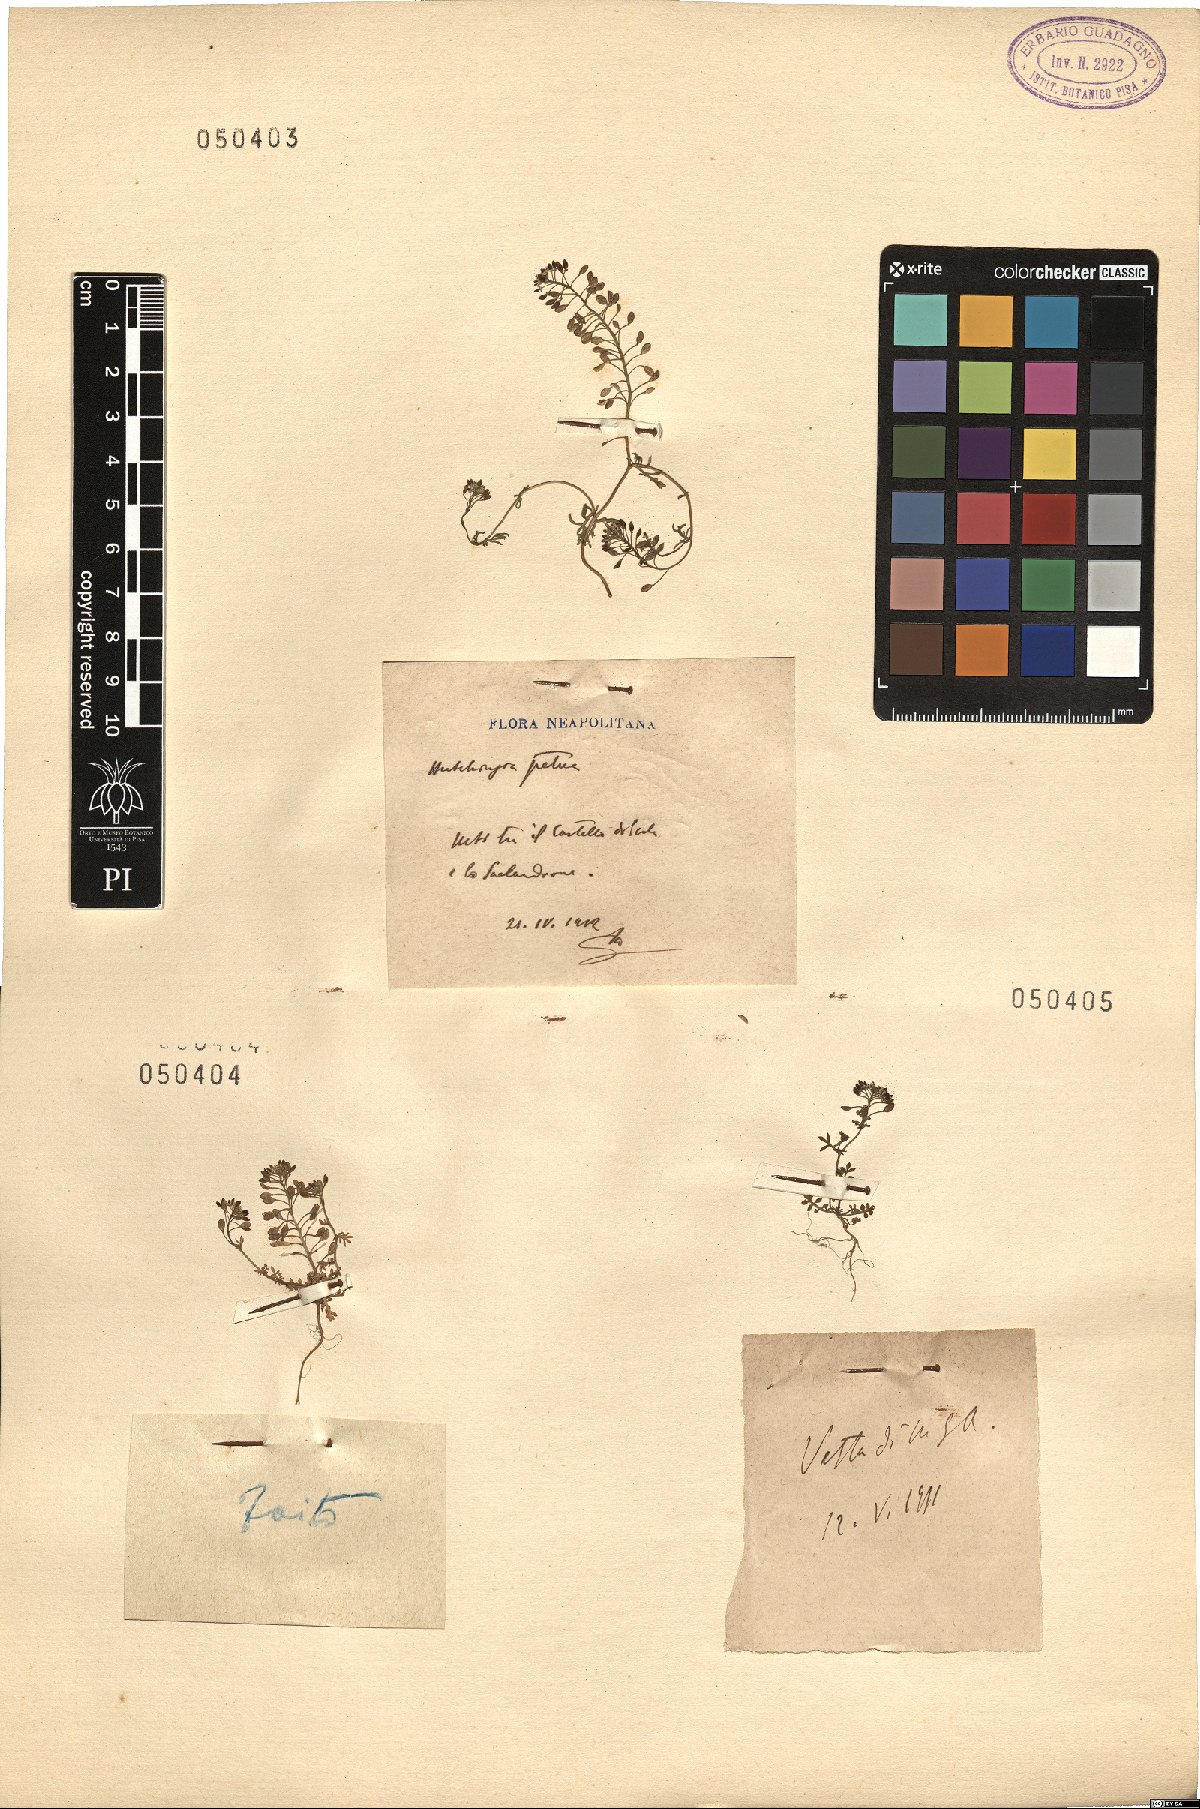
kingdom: Plantae
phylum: Rhodophyta
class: Florideophyceae
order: Ceramiales
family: Rhodomelaceae
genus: Hutchinsia
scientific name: Hutchinsia
